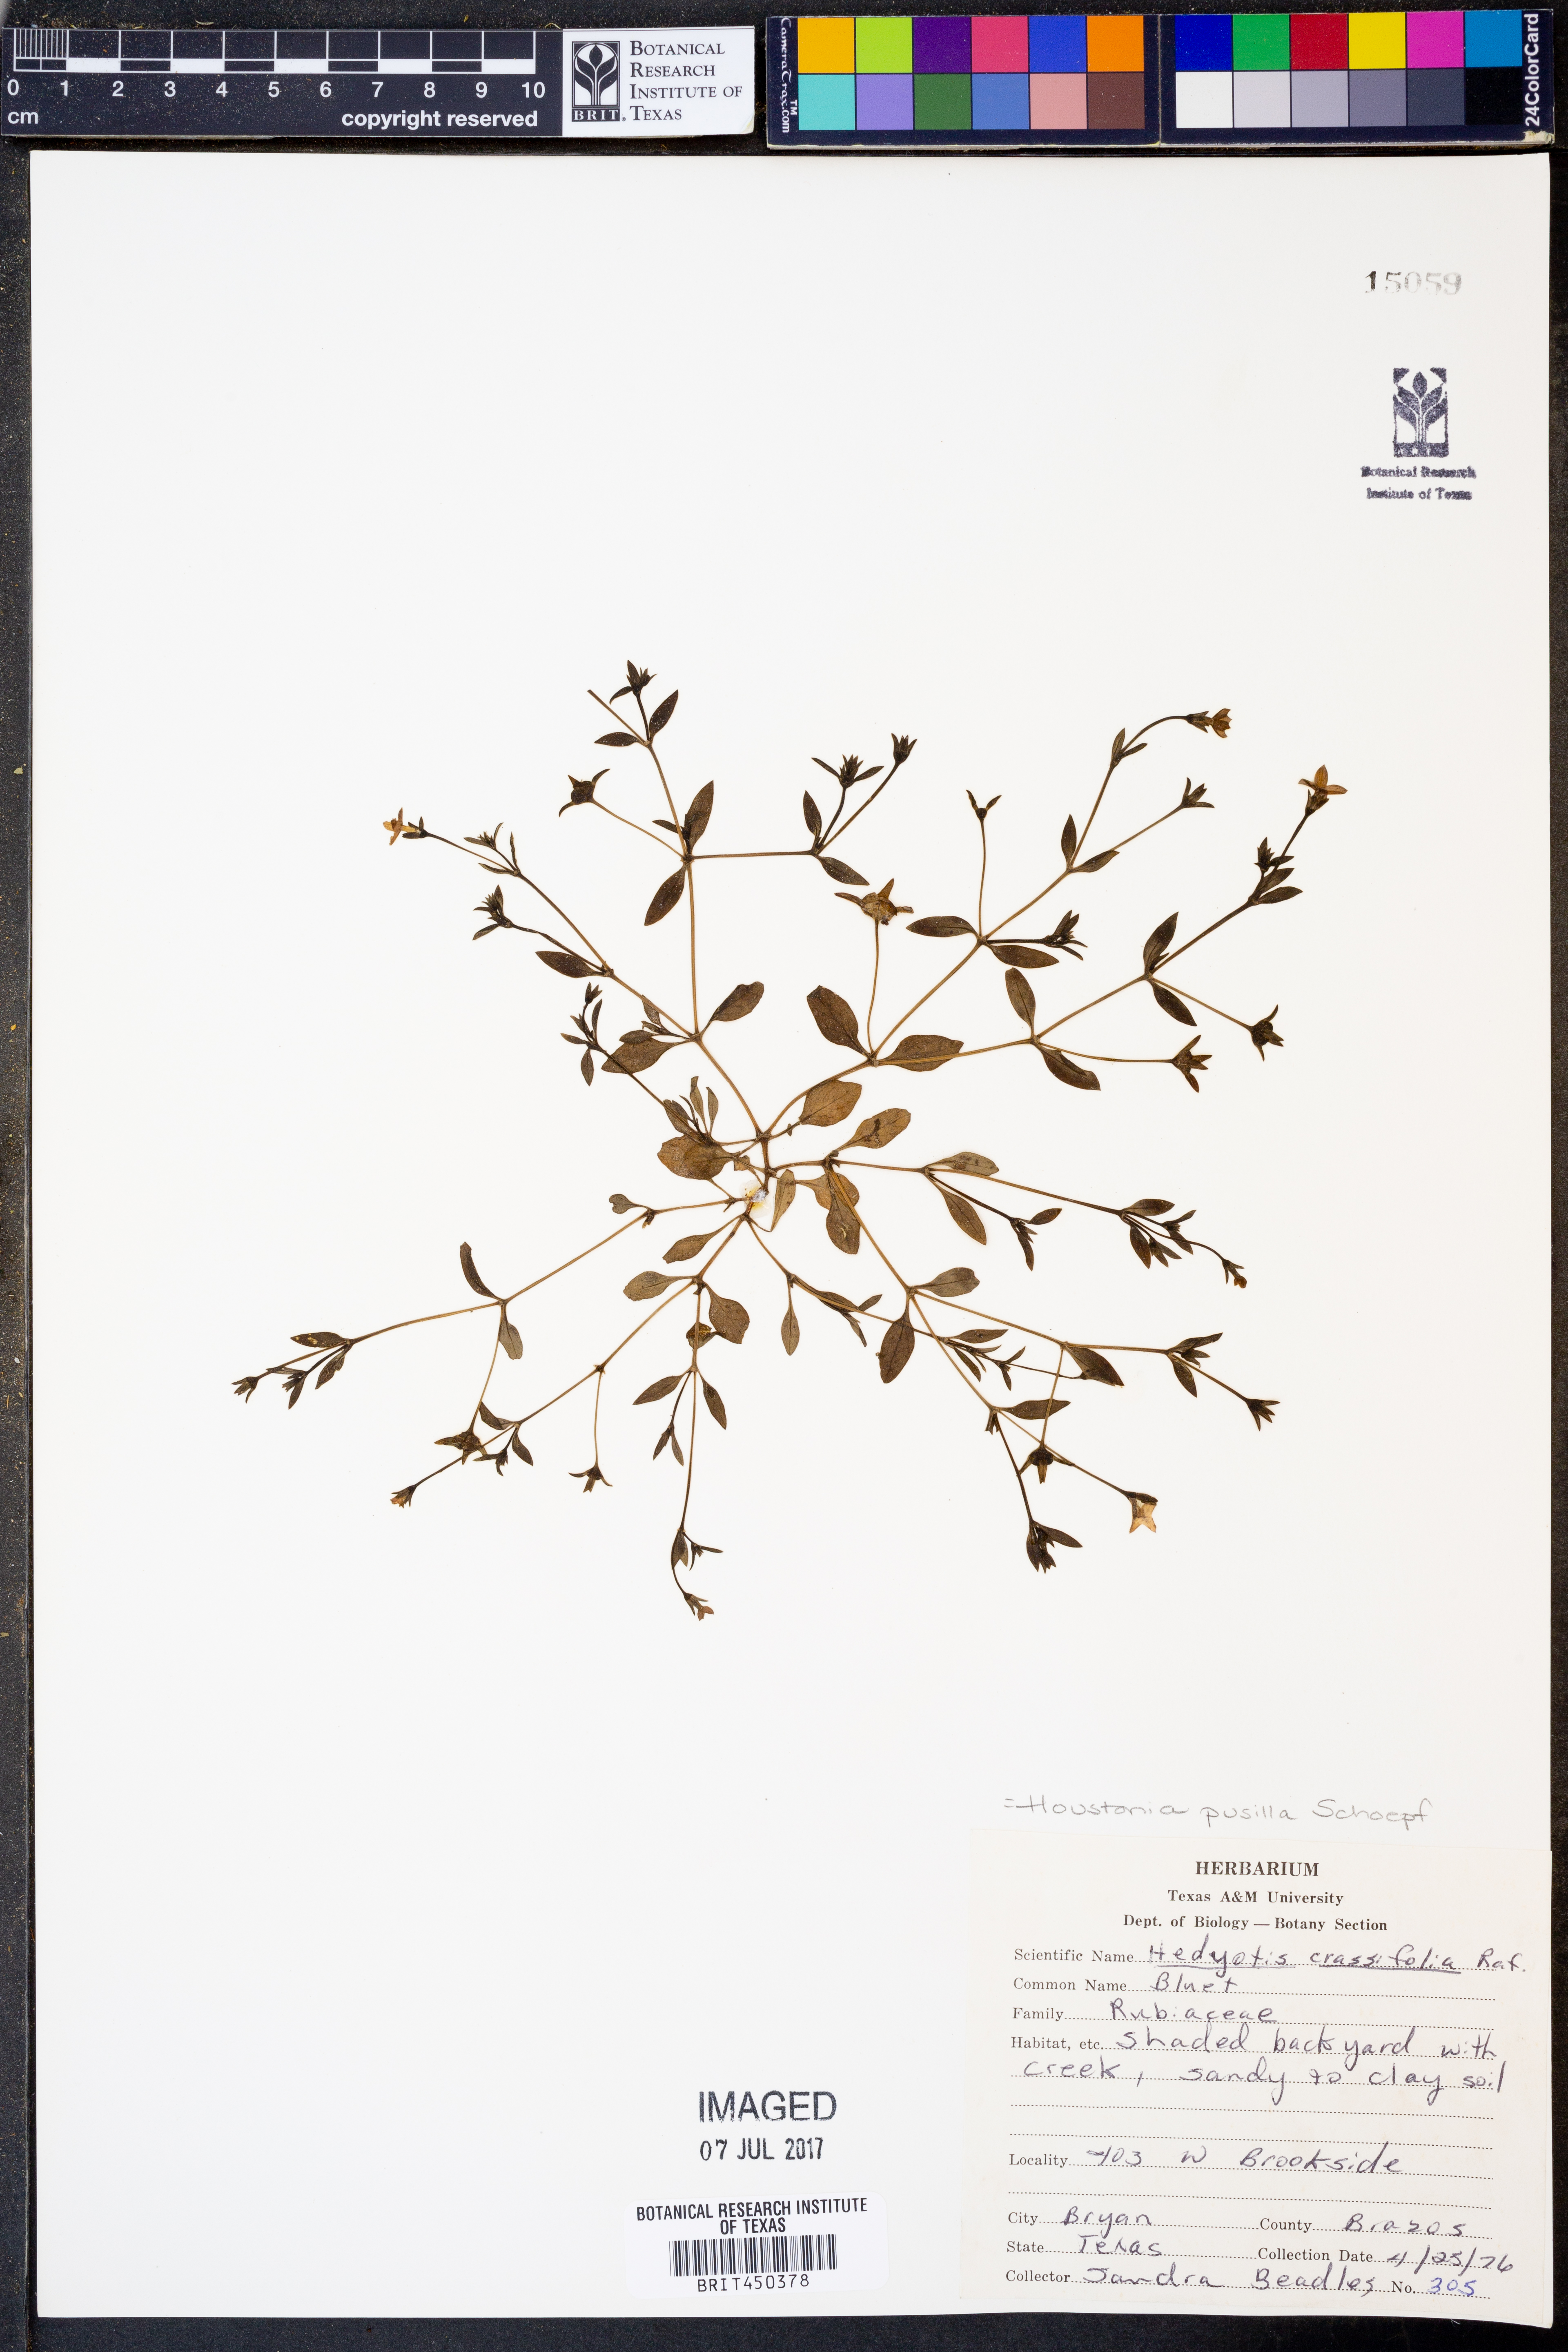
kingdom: Plantae
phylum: Tracheophyta
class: Magnoliopsida
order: Gentianales
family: Rubiaceae
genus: Houstonia
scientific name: Houstonia pusilla
